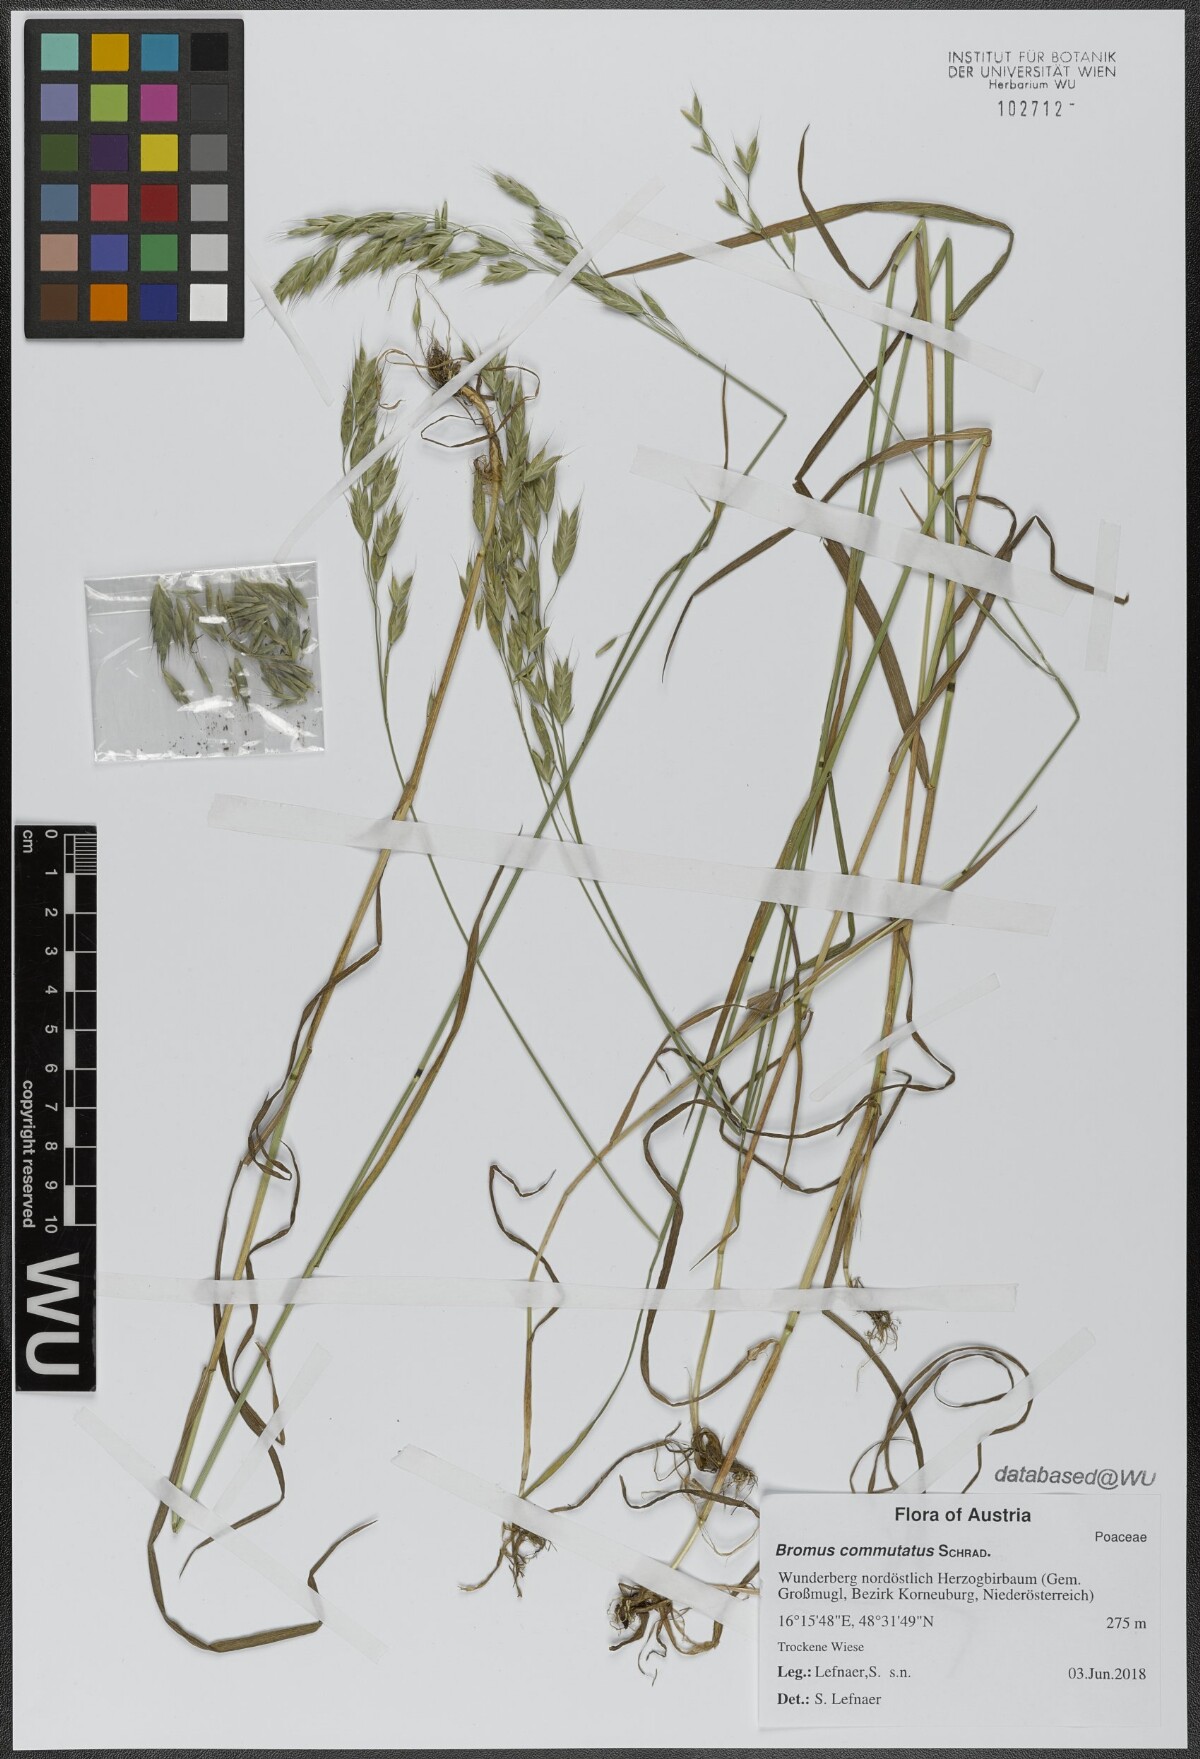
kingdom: Plantae
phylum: Tracheophyta
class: Liliopsida
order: Poales
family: Poaceae
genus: Bromus
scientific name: Bromus commutatus
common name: Meadow brome
